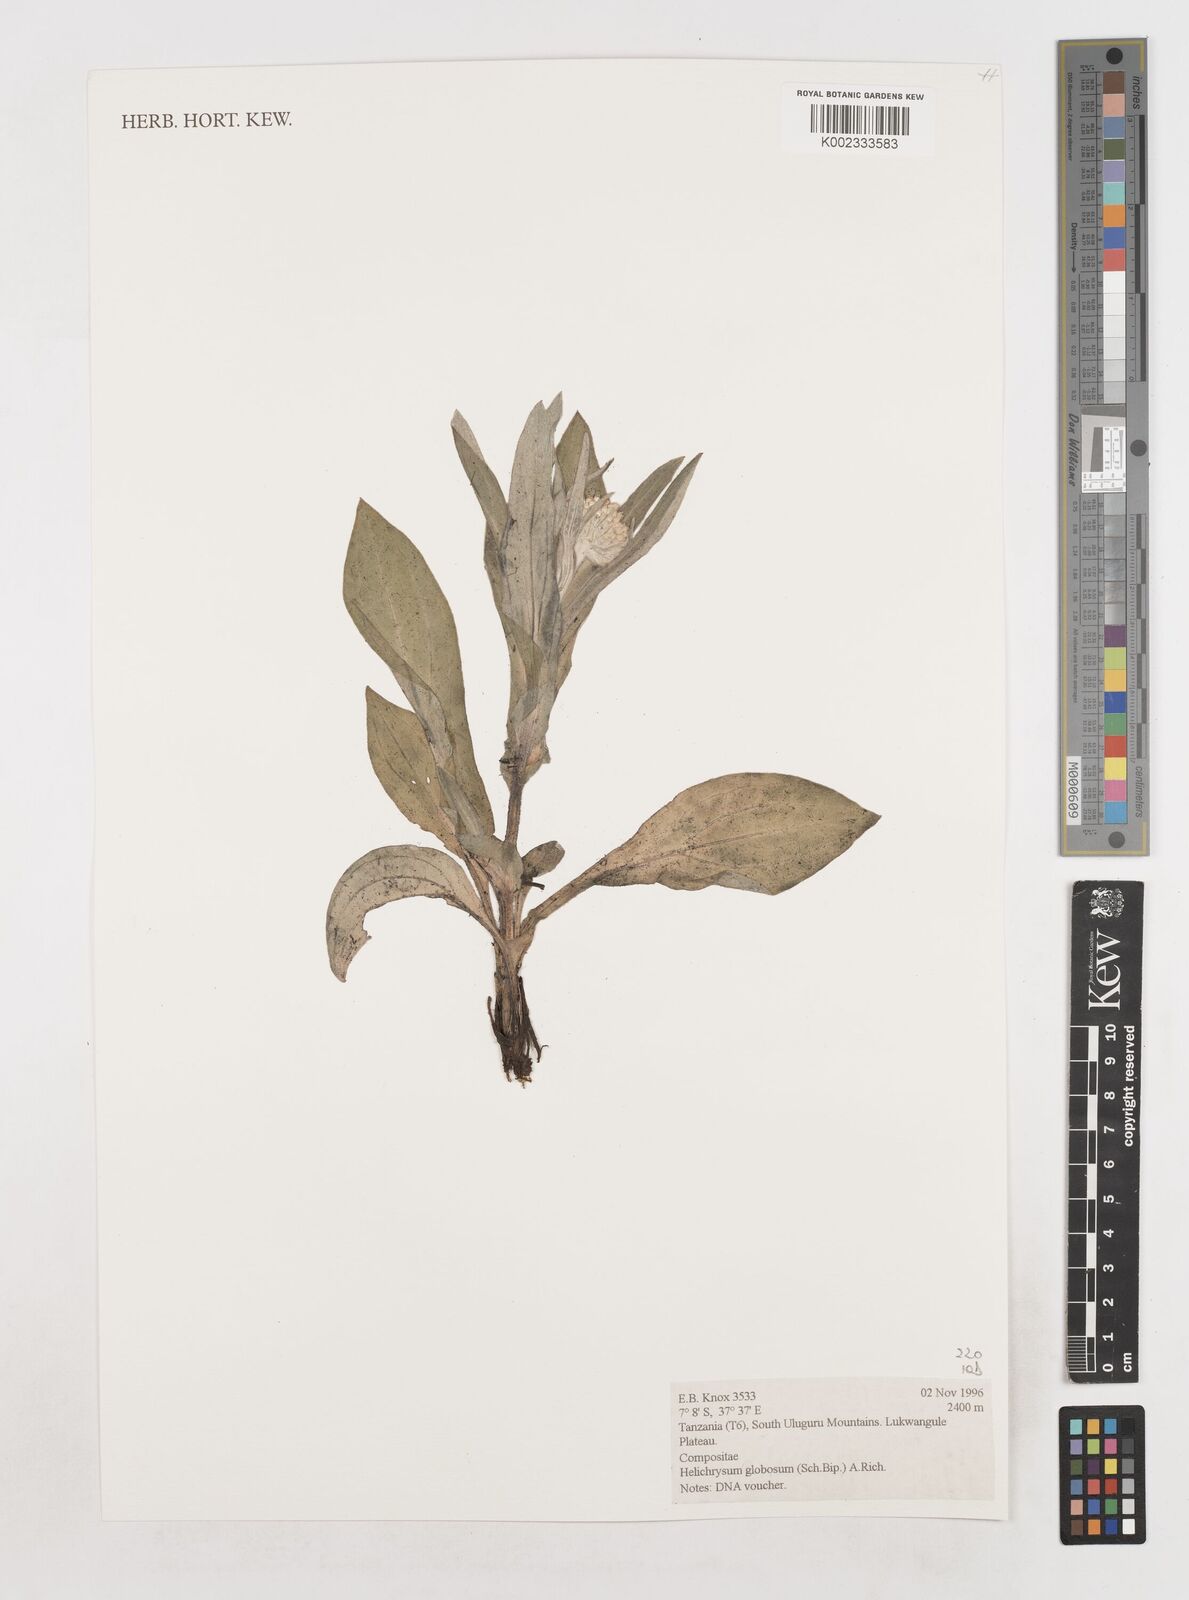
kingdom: Plantae
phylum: Tracheophyta
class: Magnoliopsida
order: Asterales
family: Asteraceae
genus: Helichrysum
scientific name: Helichrysum globosum
